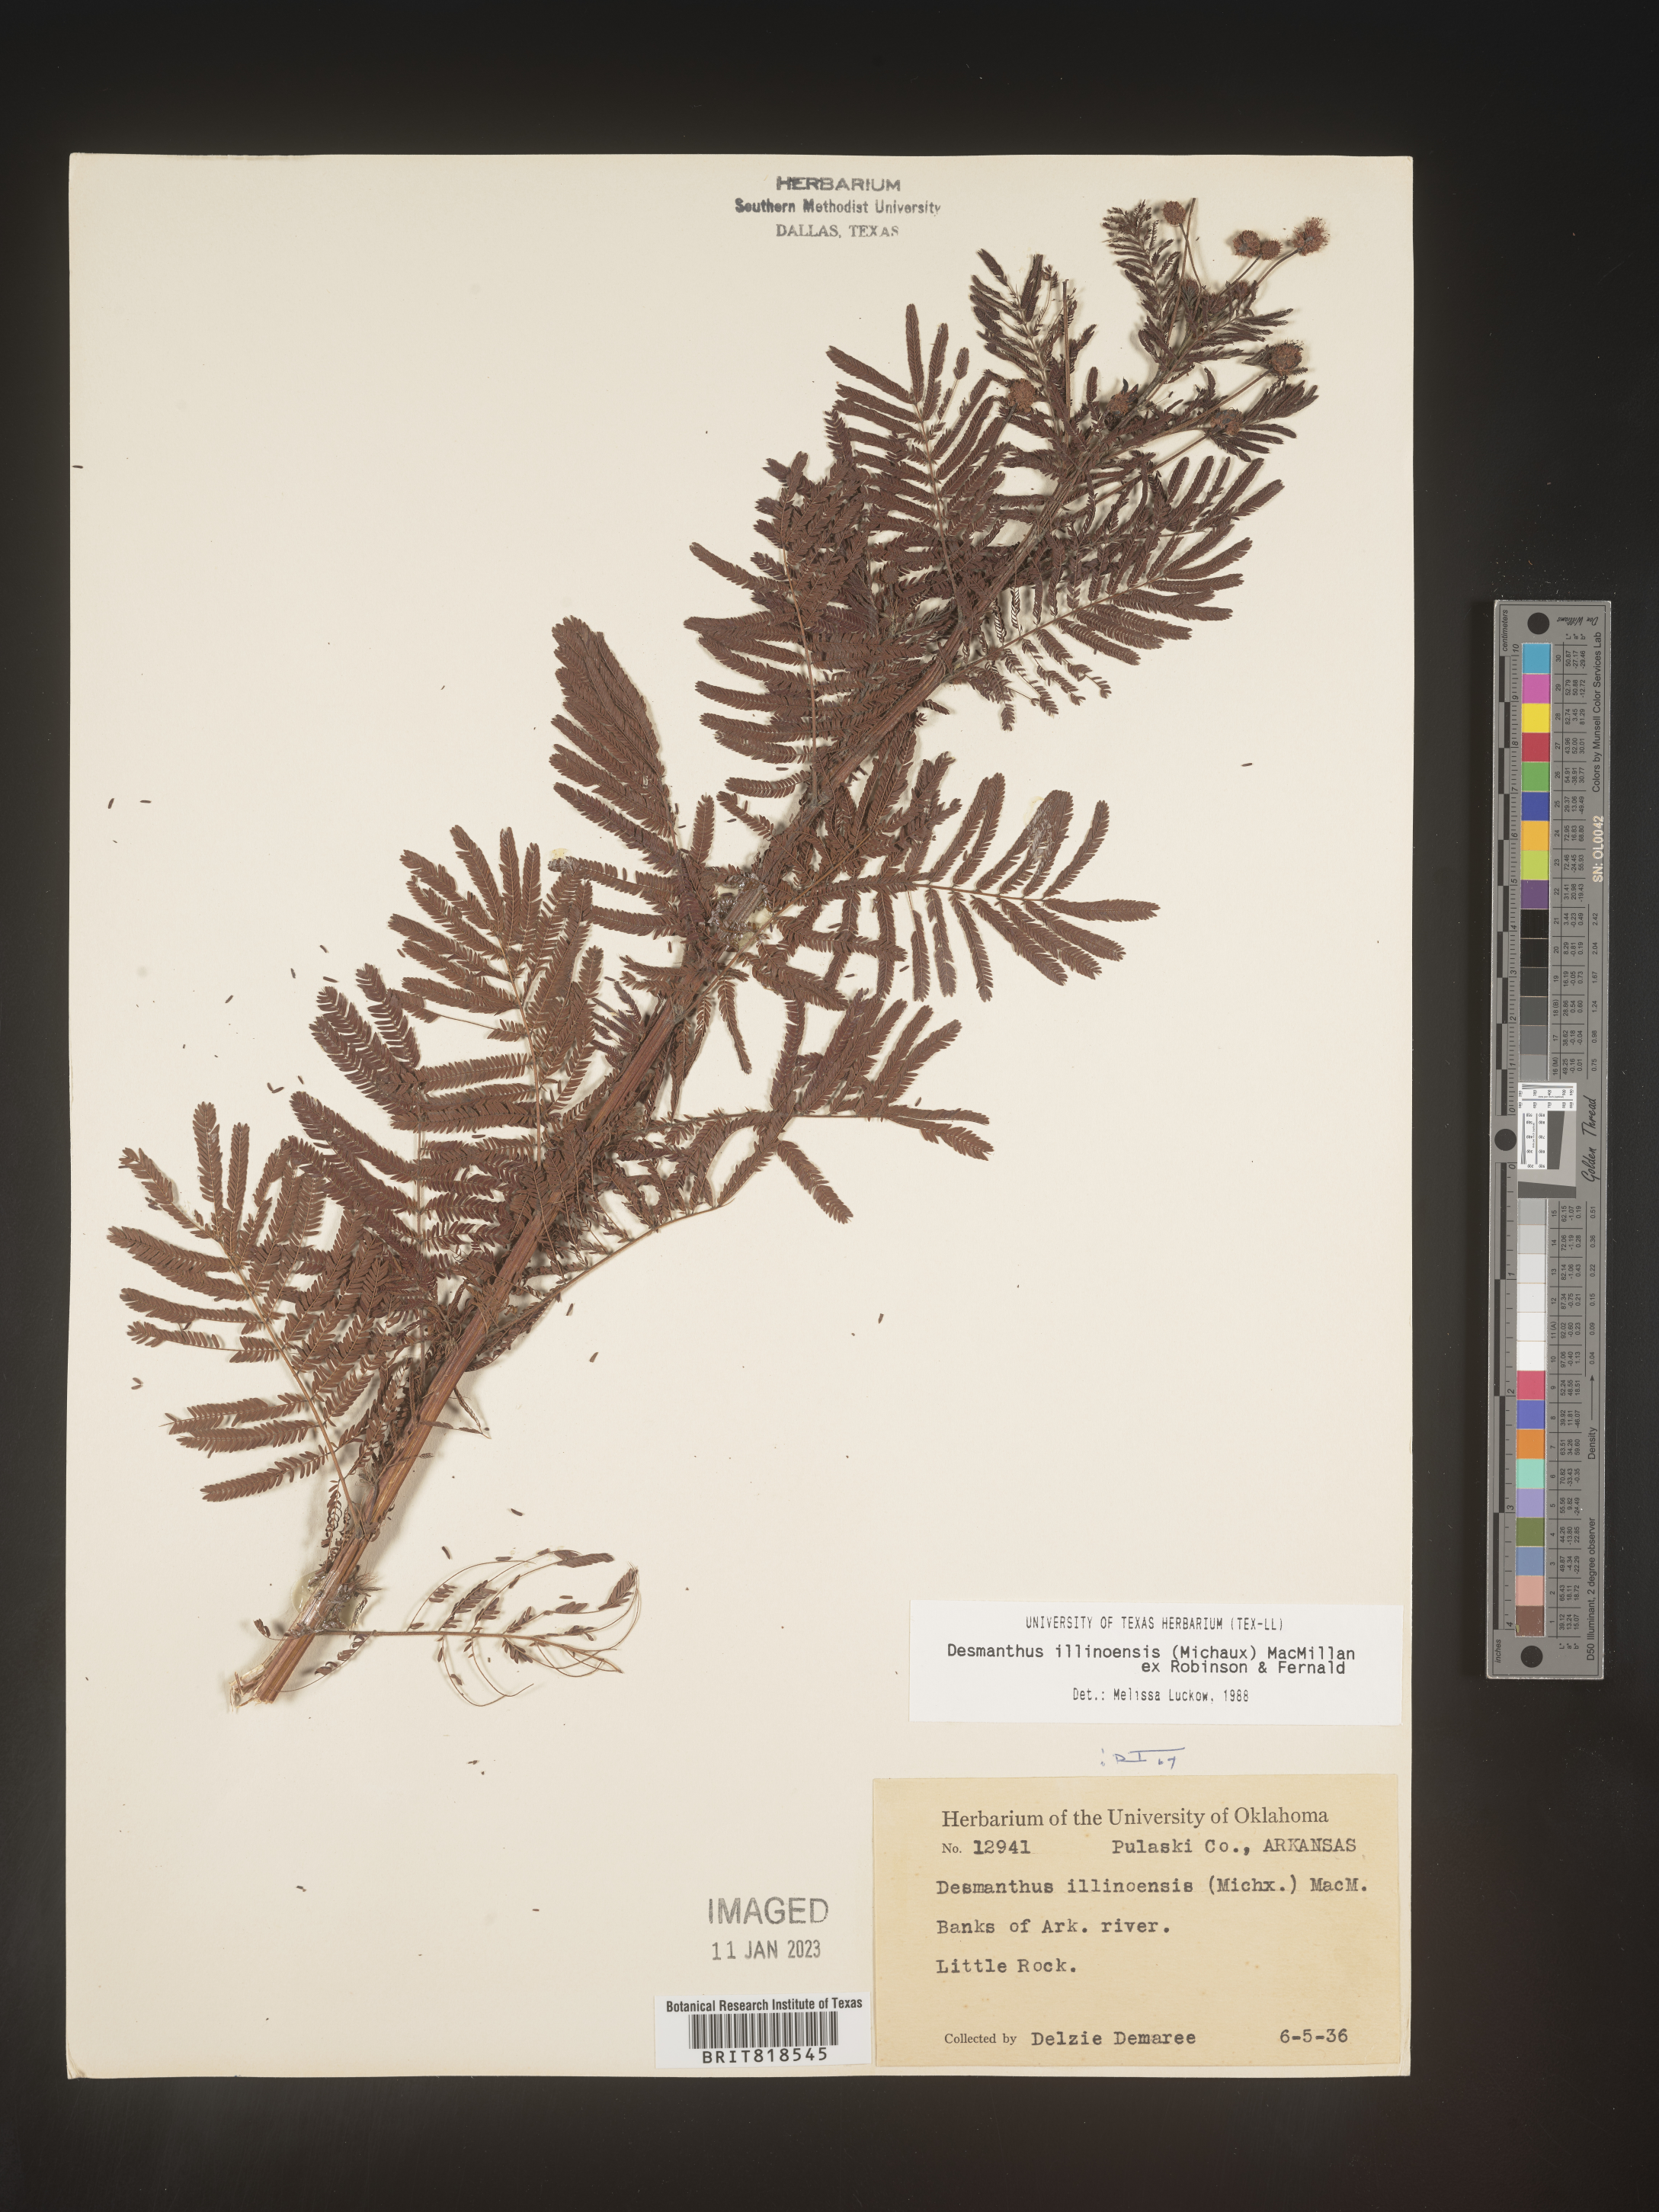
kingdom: Plantae
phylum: Tracheophyta
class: Magnoliopsida
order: Fabales
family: Fabaceae
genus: Desmanthus
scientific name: Desmanthus illinoensis
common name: Illinois bundle-flower
